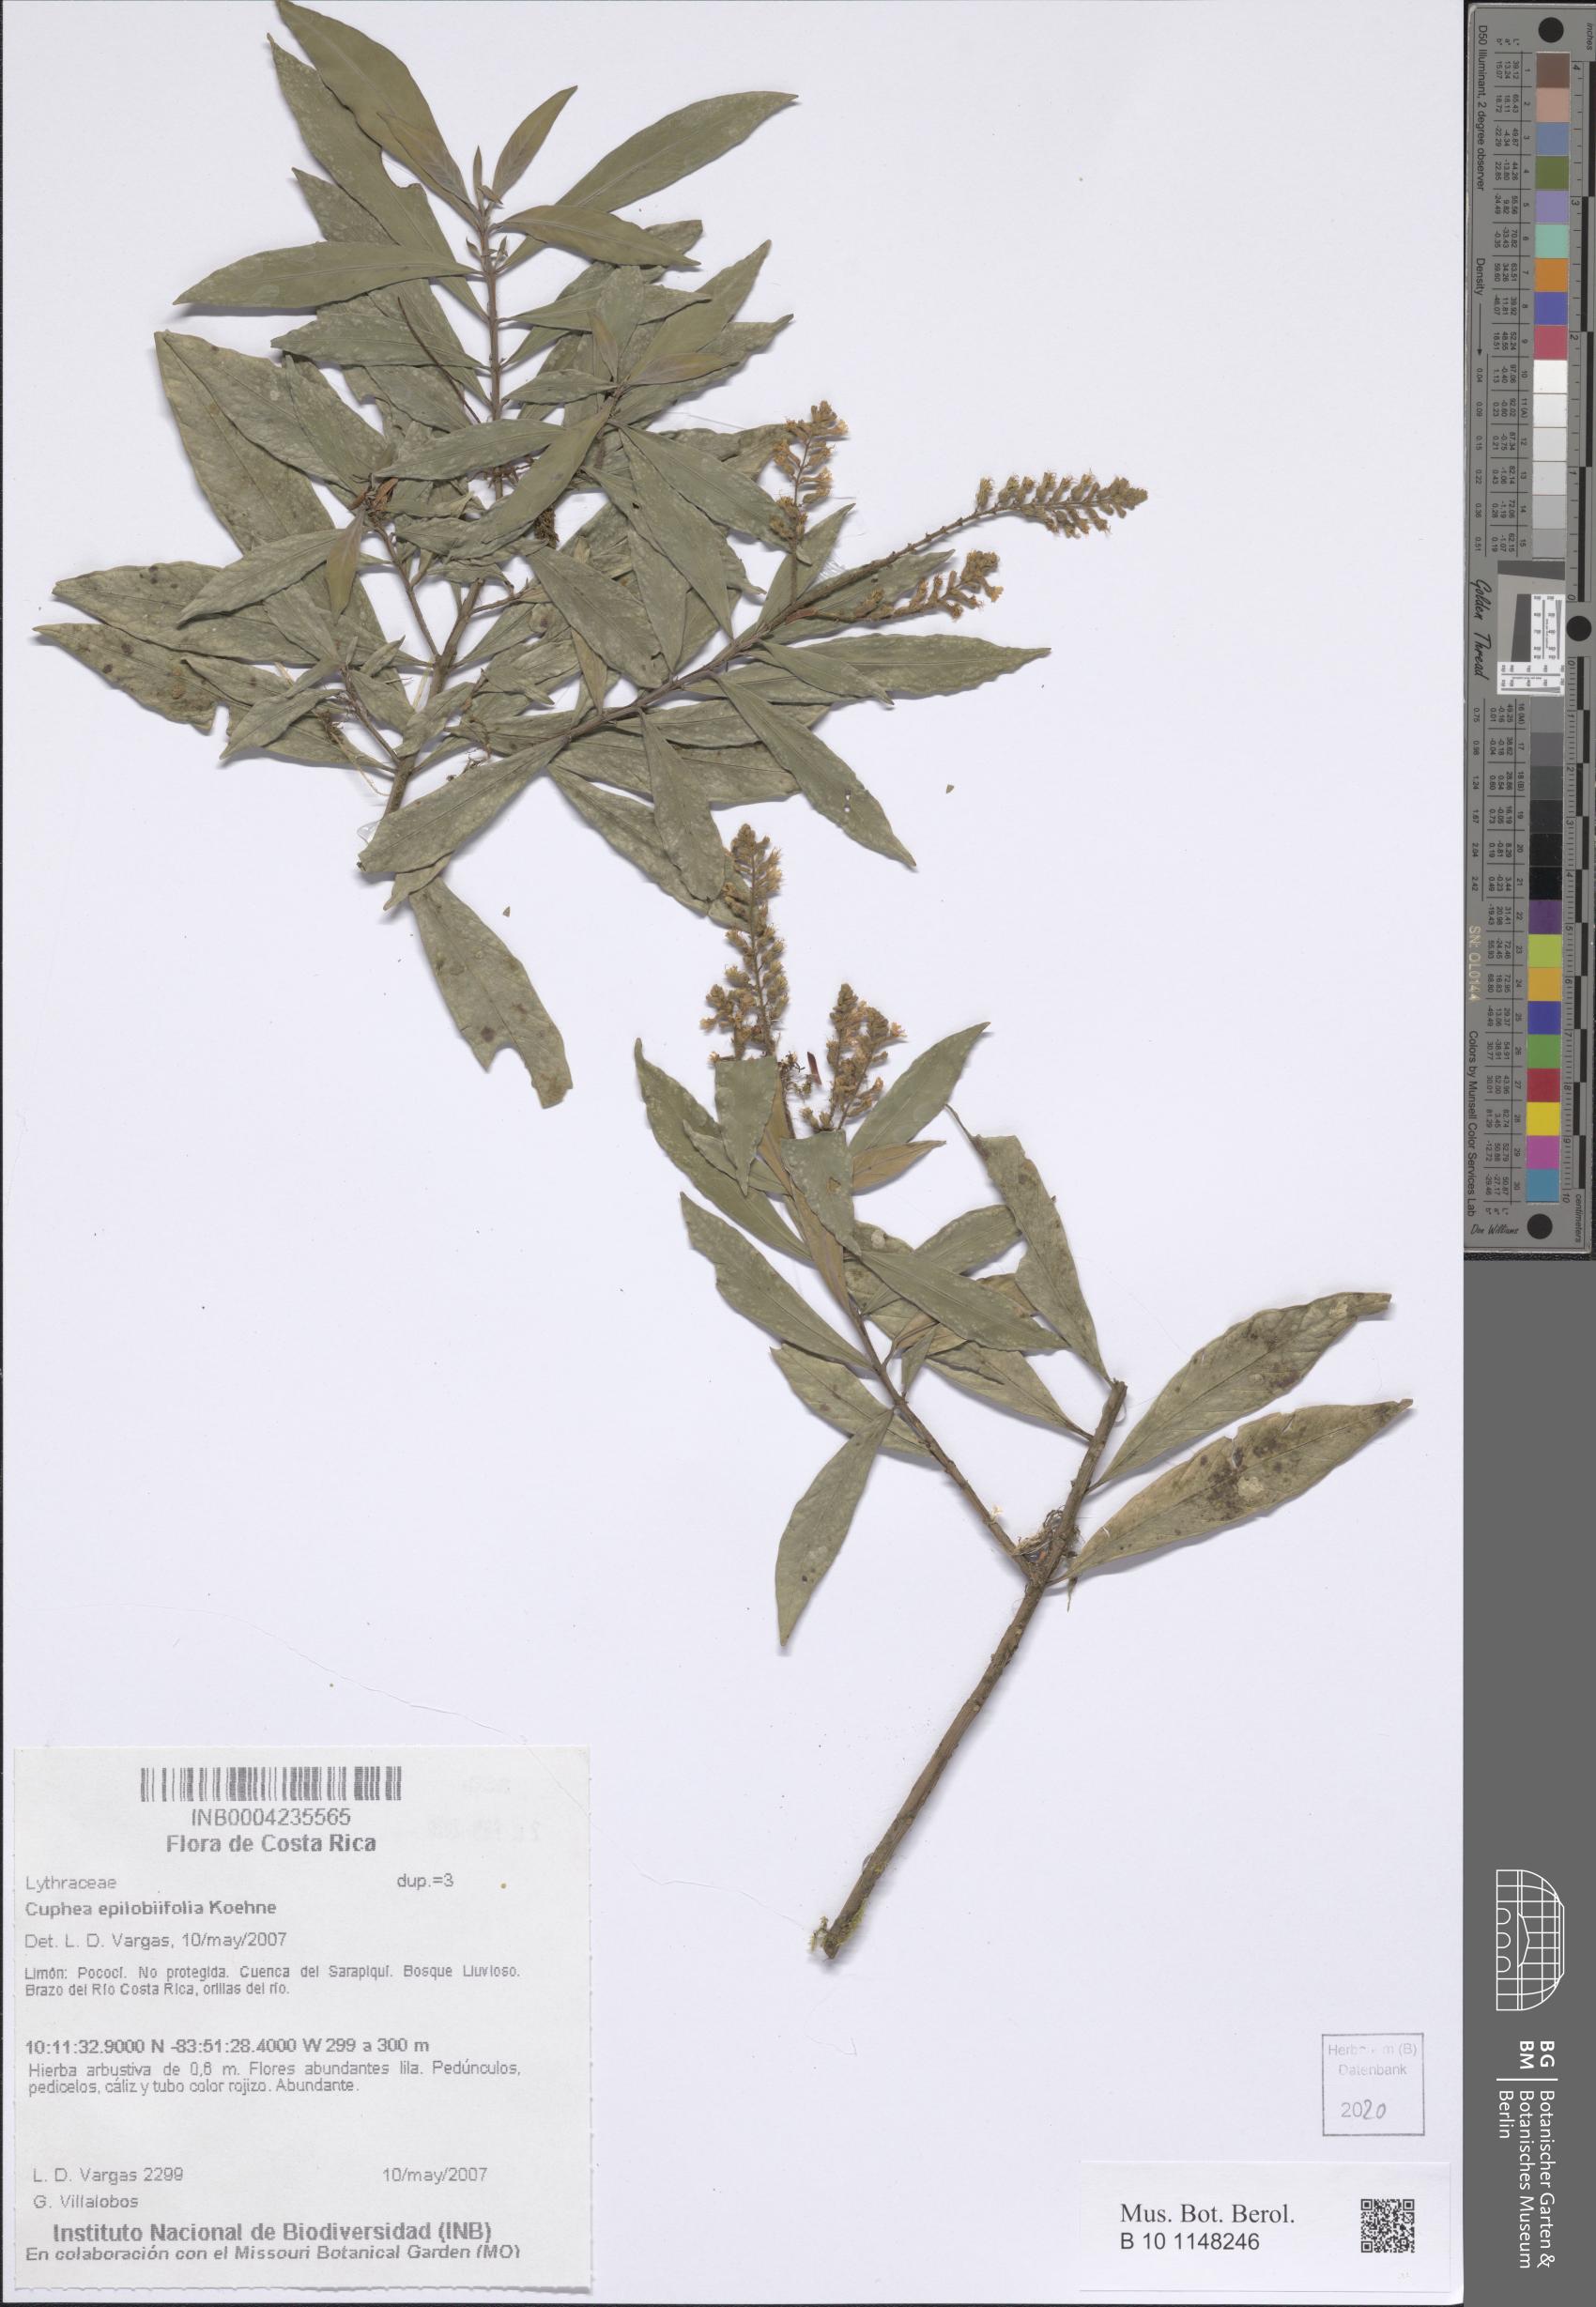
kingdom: Plantae
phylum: Tracheophyta
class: Magnoliopsida
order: Myrtales
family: Lythraceae
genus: Cuphea
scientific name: Cuphea epilobiifolia
